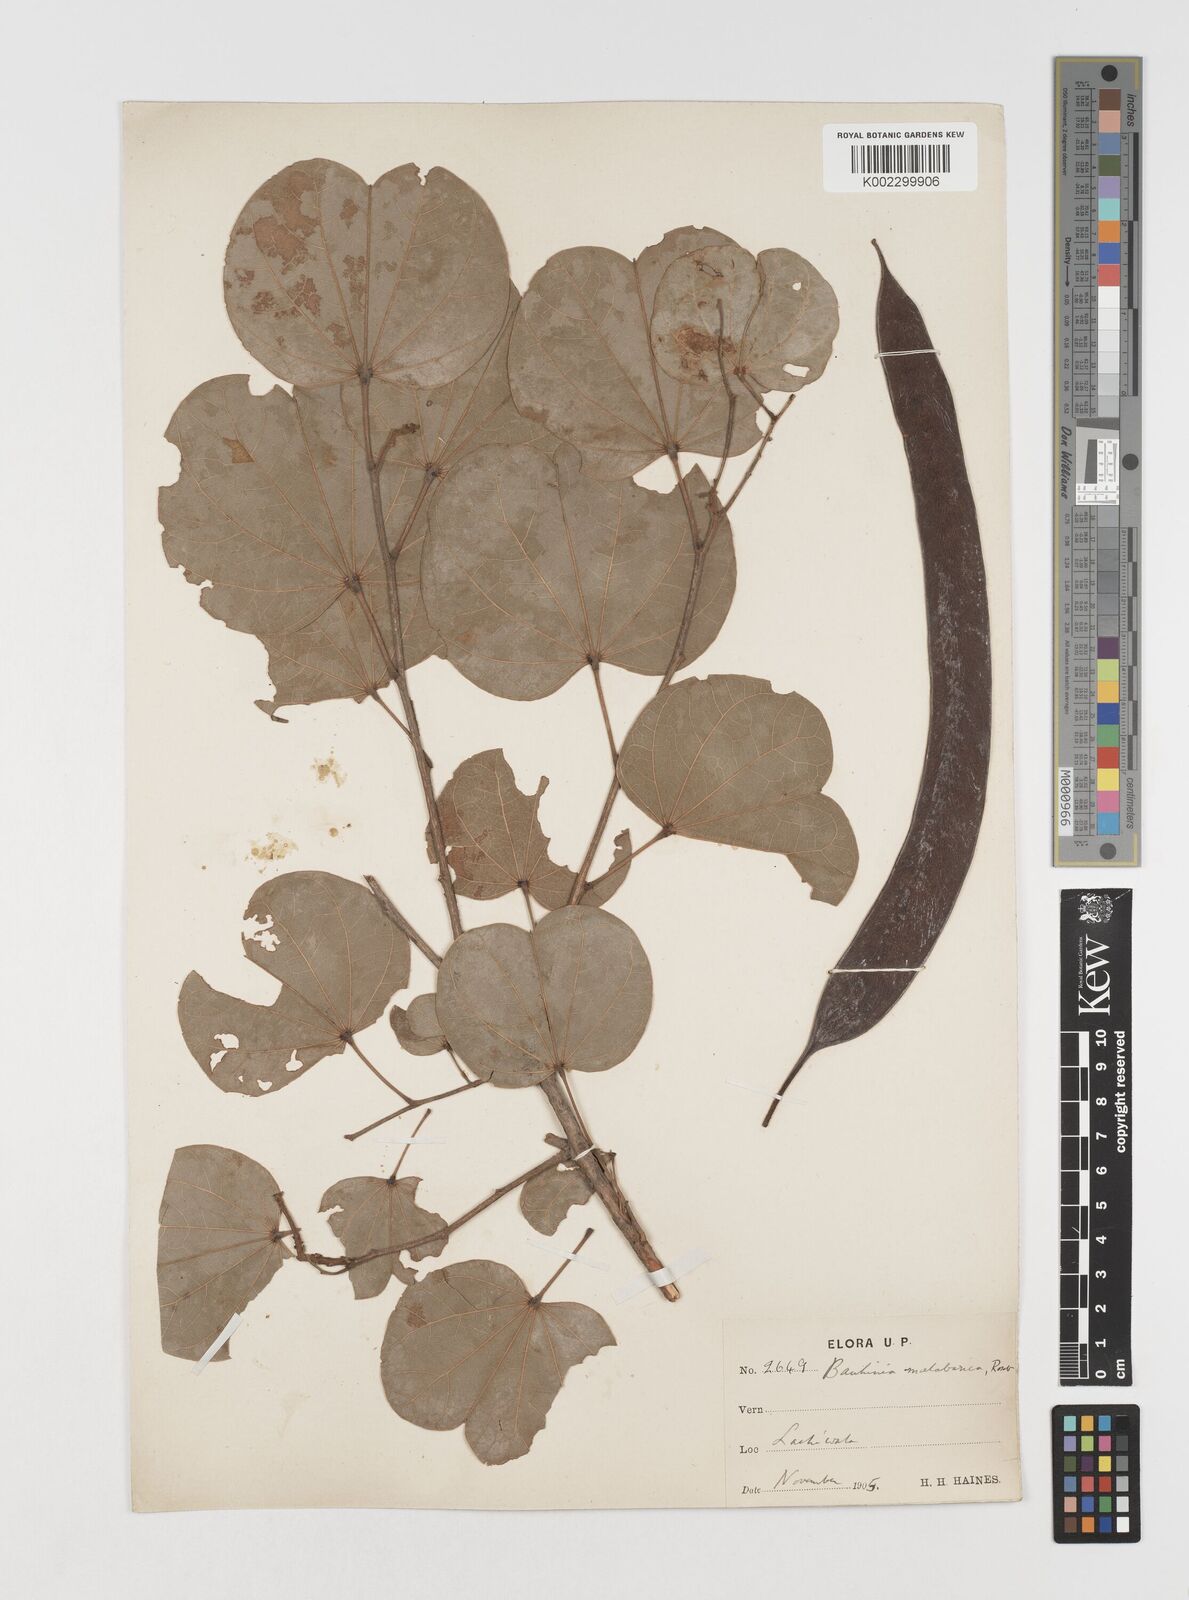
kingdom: Plantae
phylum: Tracheophyta
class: Magnoliopsida
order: Fabales
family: Fabaceae
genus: Piliostigma
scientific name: Piliostigma malabaricum
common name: Malabar bauhinia
